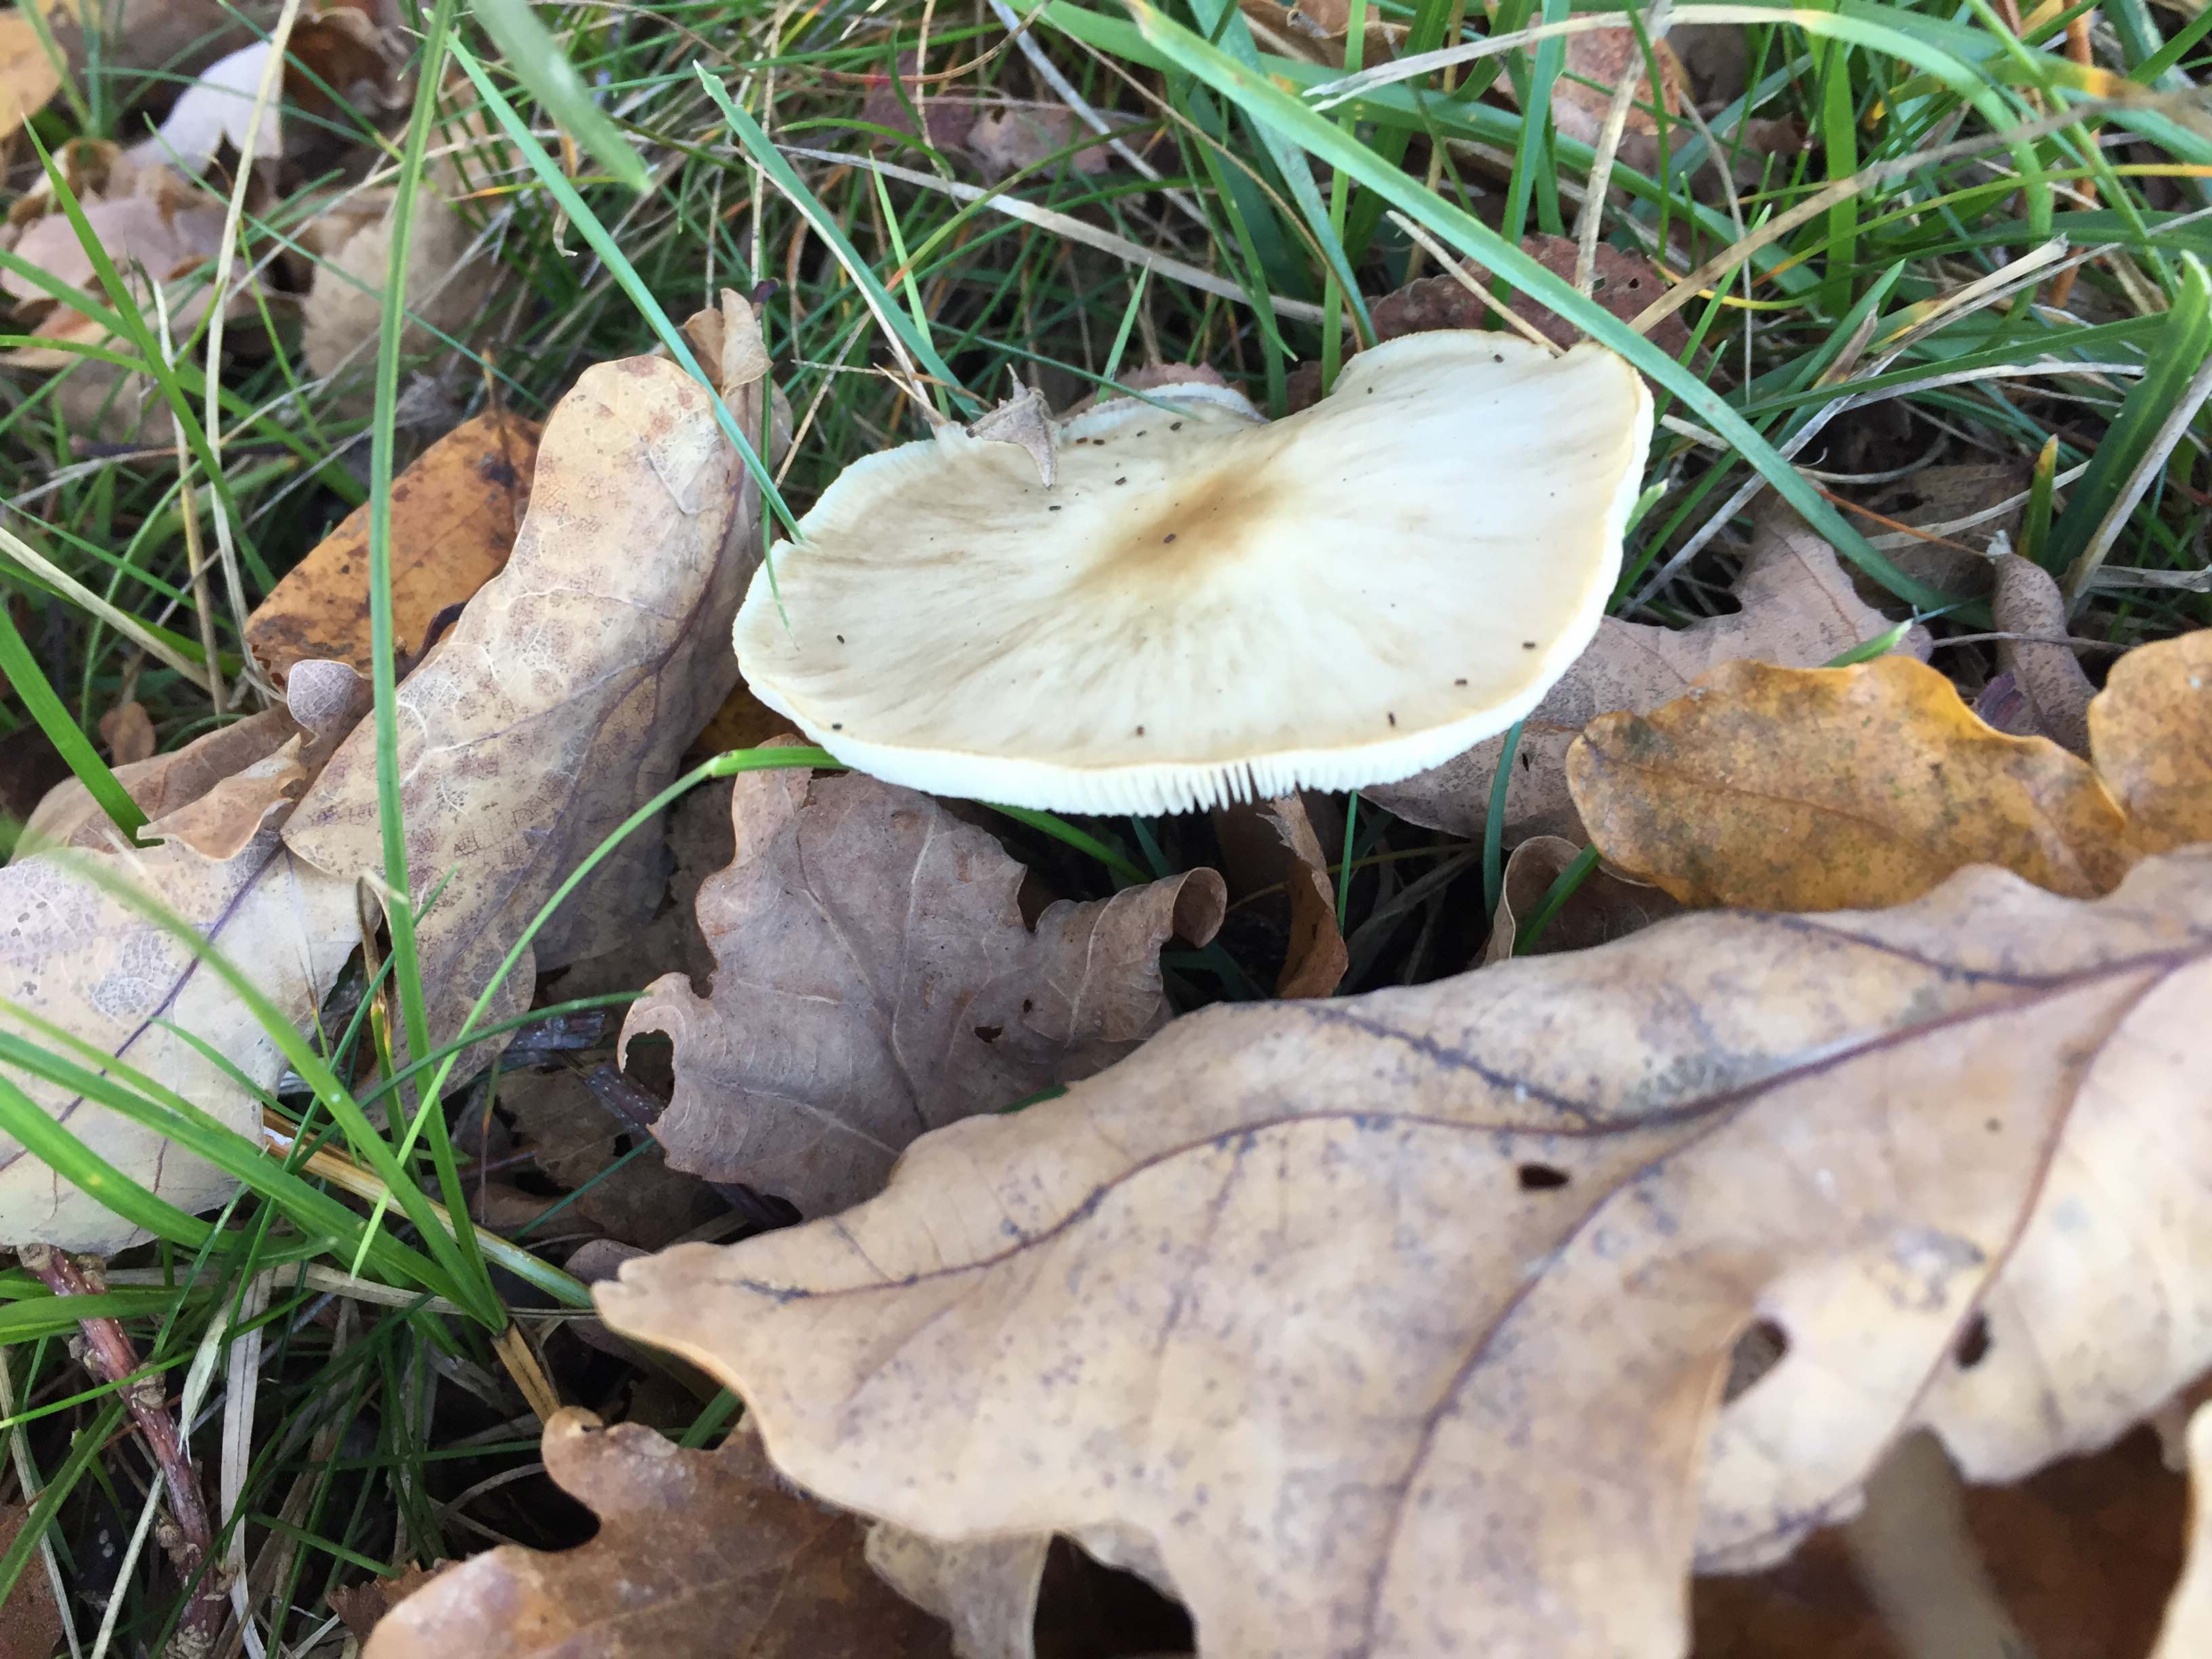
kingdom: Fungi
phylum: Basidiomycota
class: Agaricomycetes
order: Agaricales
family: Omphalotaceae
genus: Rhodocollybia
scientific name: Rhodocollybia asema
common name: horngrå fladhat
